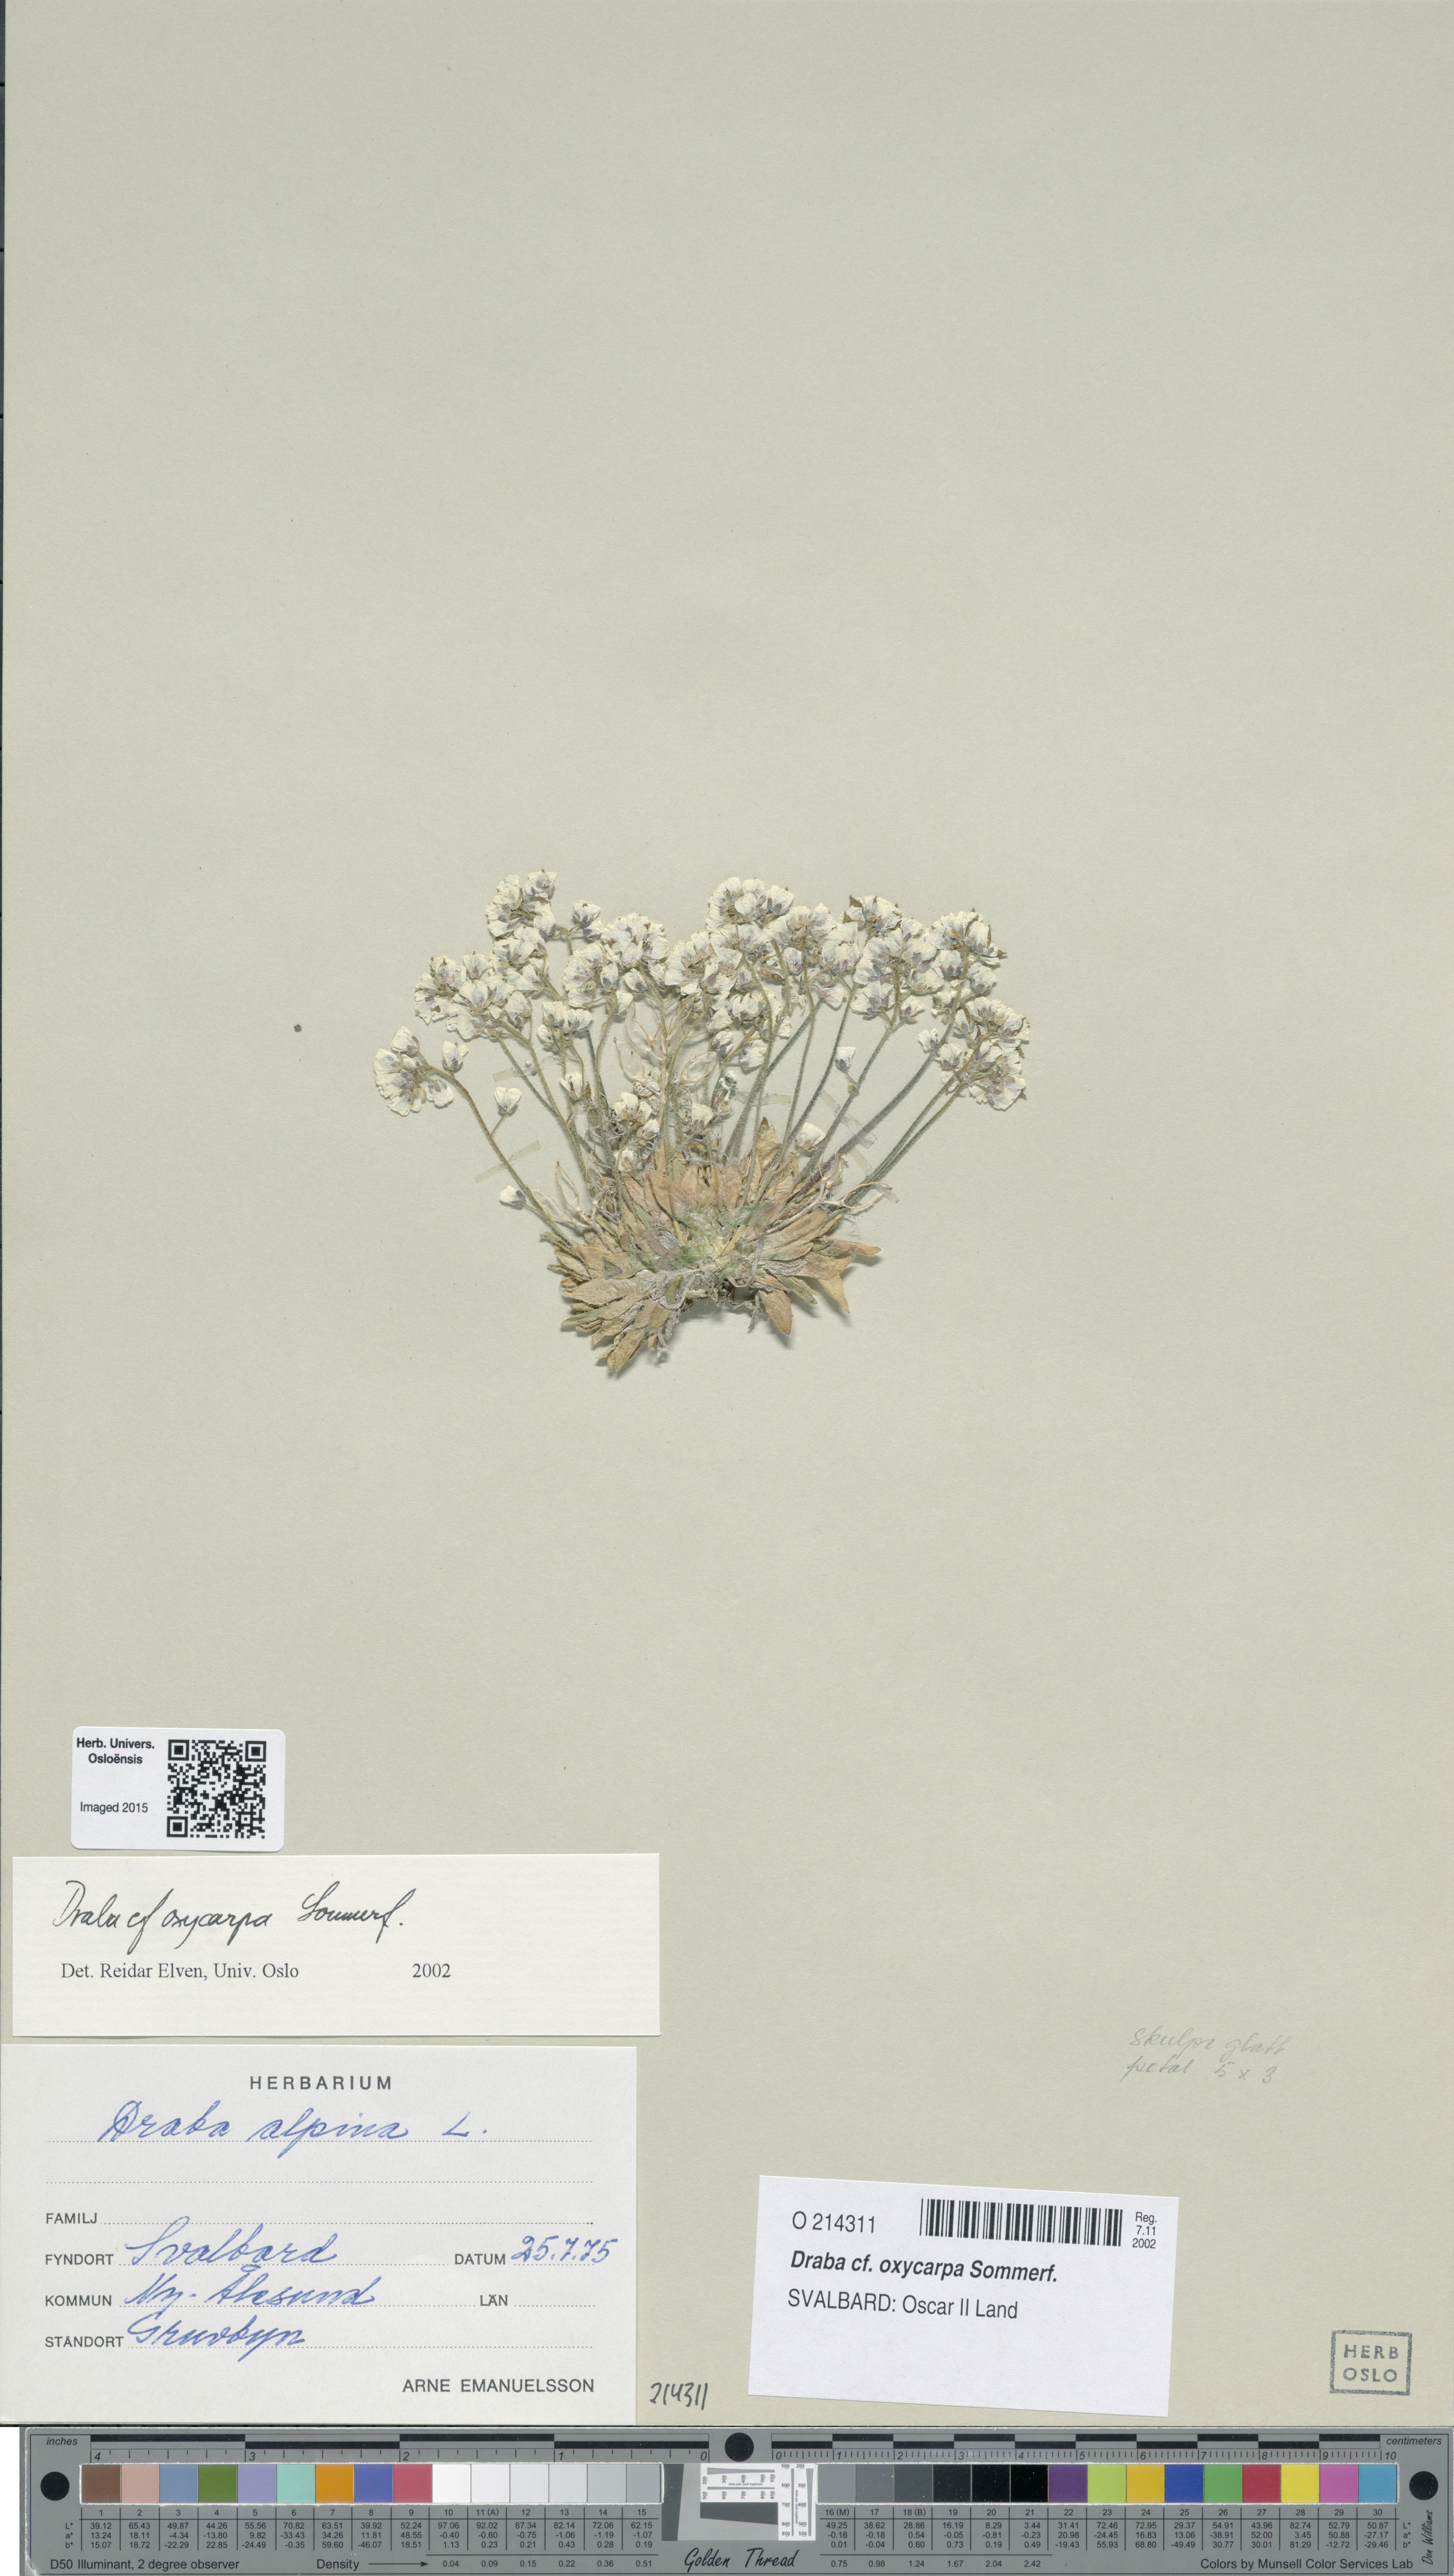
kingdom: Plantae
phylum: Tracheophyta
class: Magnoliopsida
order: Brassicales
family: Brassicaceae
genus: Draba
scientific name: Draba oxycarpa
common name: Sharp-fruited whitlow-grass
